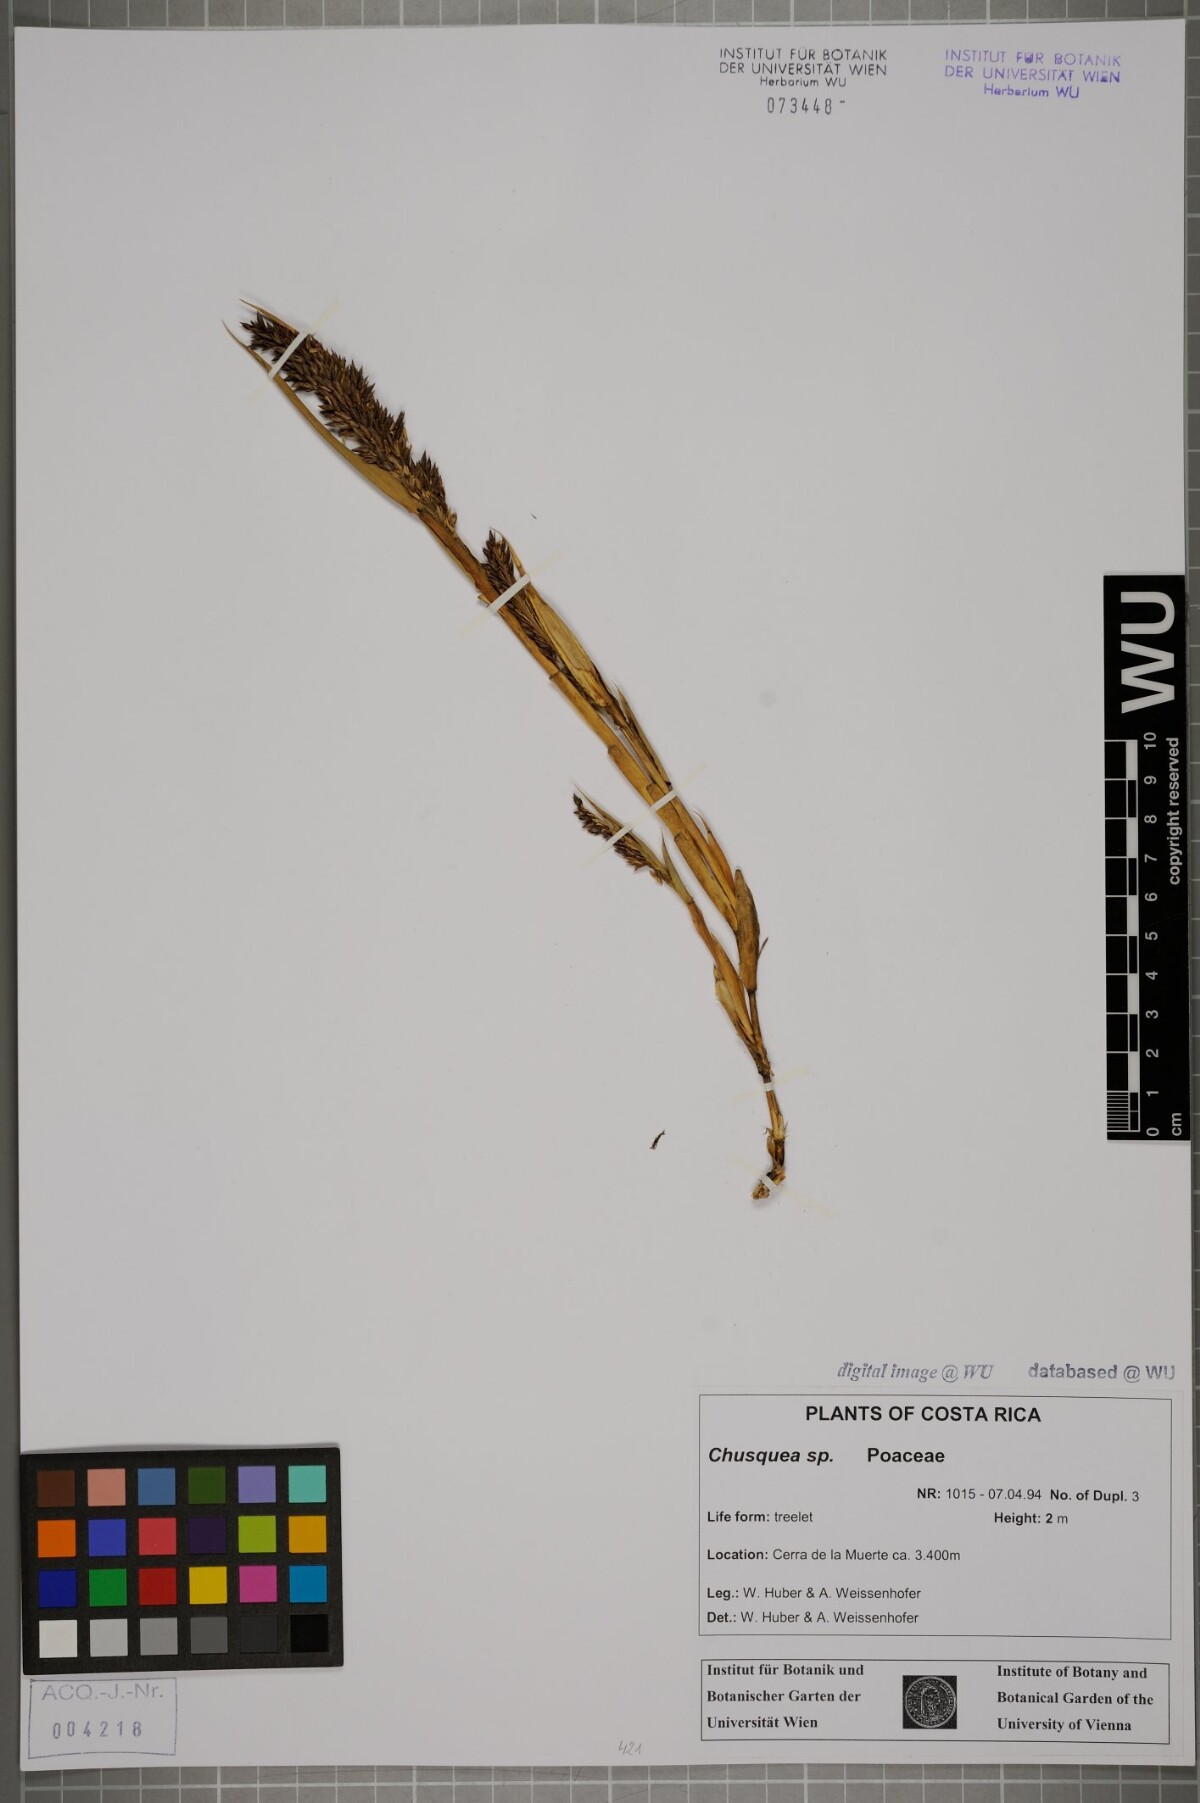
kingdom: Plantae
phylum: Tracheophyta
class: Liliopsida
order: Poales
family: Poaceae
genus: Chusquea
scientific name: Chusquea
